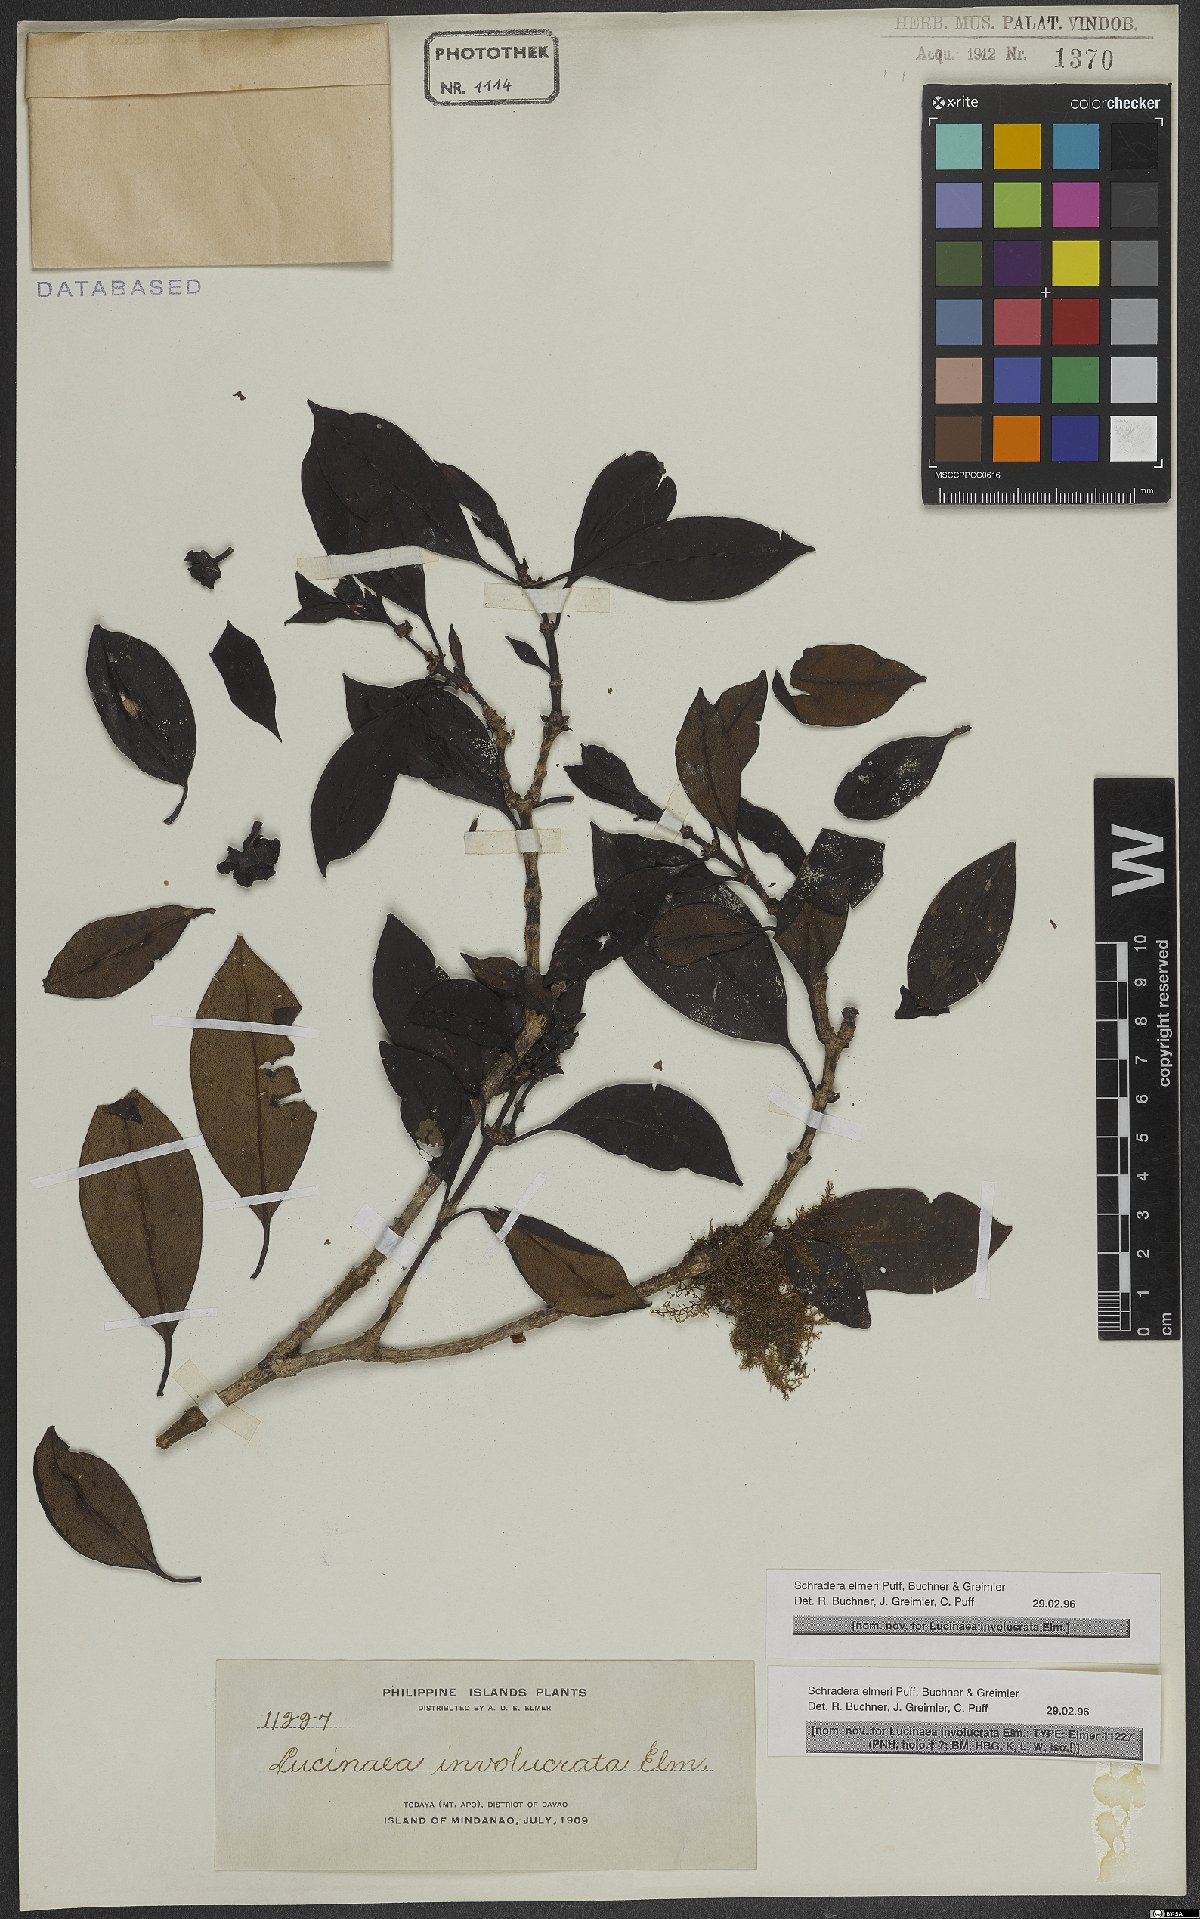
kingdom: Plantae
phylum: Tracheophyta
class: Magnoliopsida
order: Gentianales
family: Rubiaceae
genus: Schradera
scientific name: Schradera elmeri
